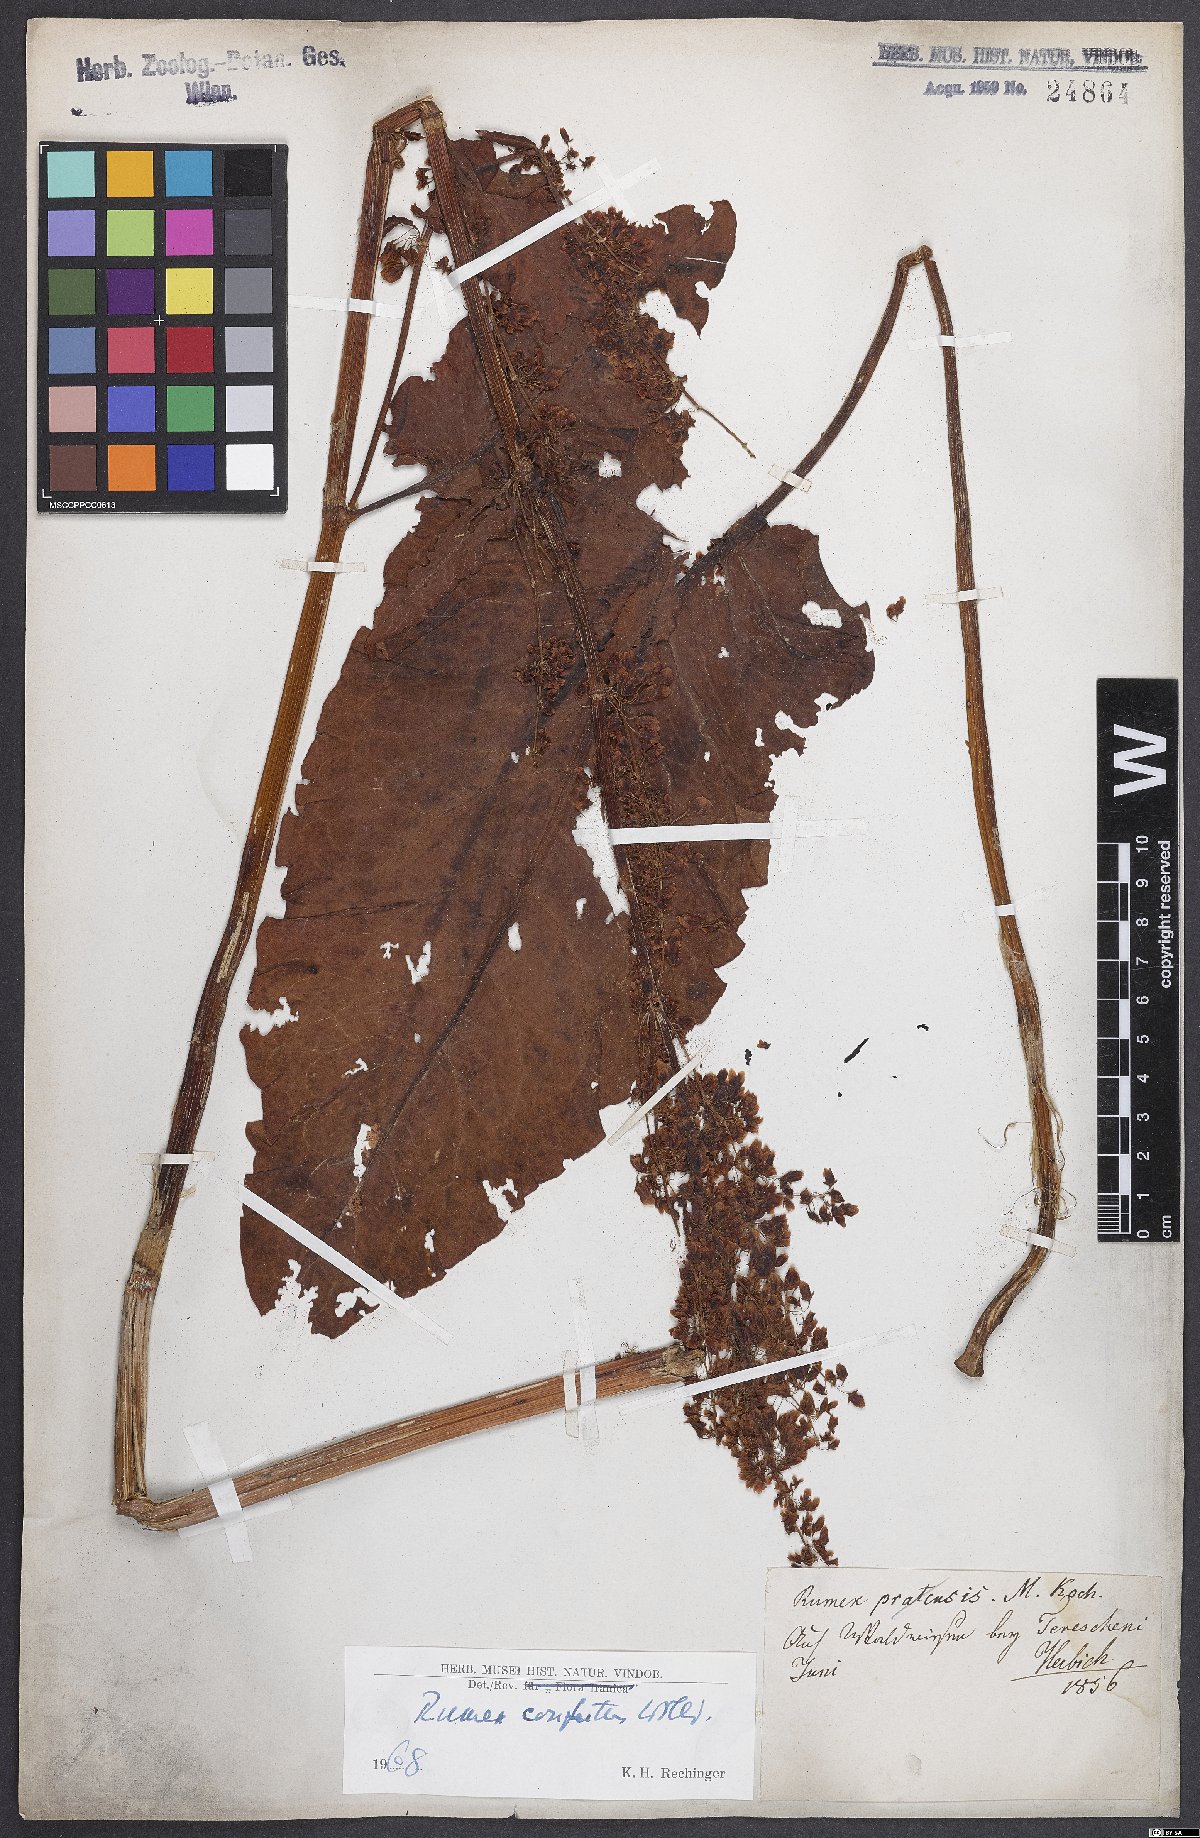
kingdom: Plantae
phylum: Tracheophyta
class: Magnoliopsida
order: Caryophyllales
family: Polygonaceae
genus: Rumex
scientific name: Rumex confertus
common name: Russian dock
